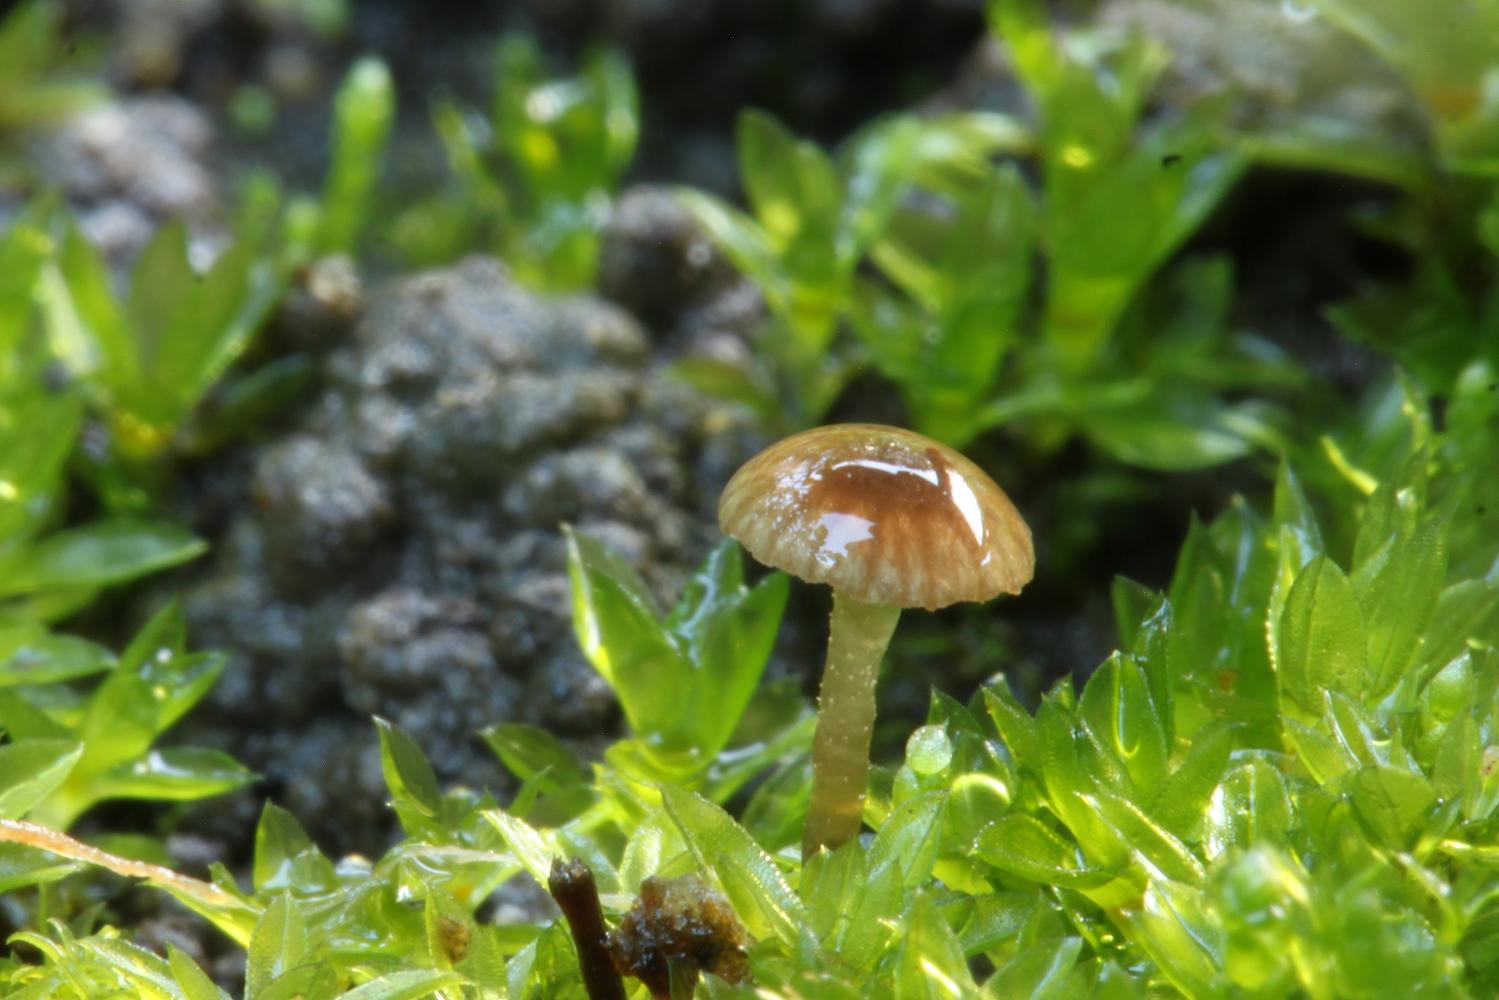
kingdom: Fungi
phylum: Basidiomycota
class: Agaricomycetes
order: Agaricales
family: Entolomataceae
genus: Entoloma
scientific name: Entoloma
